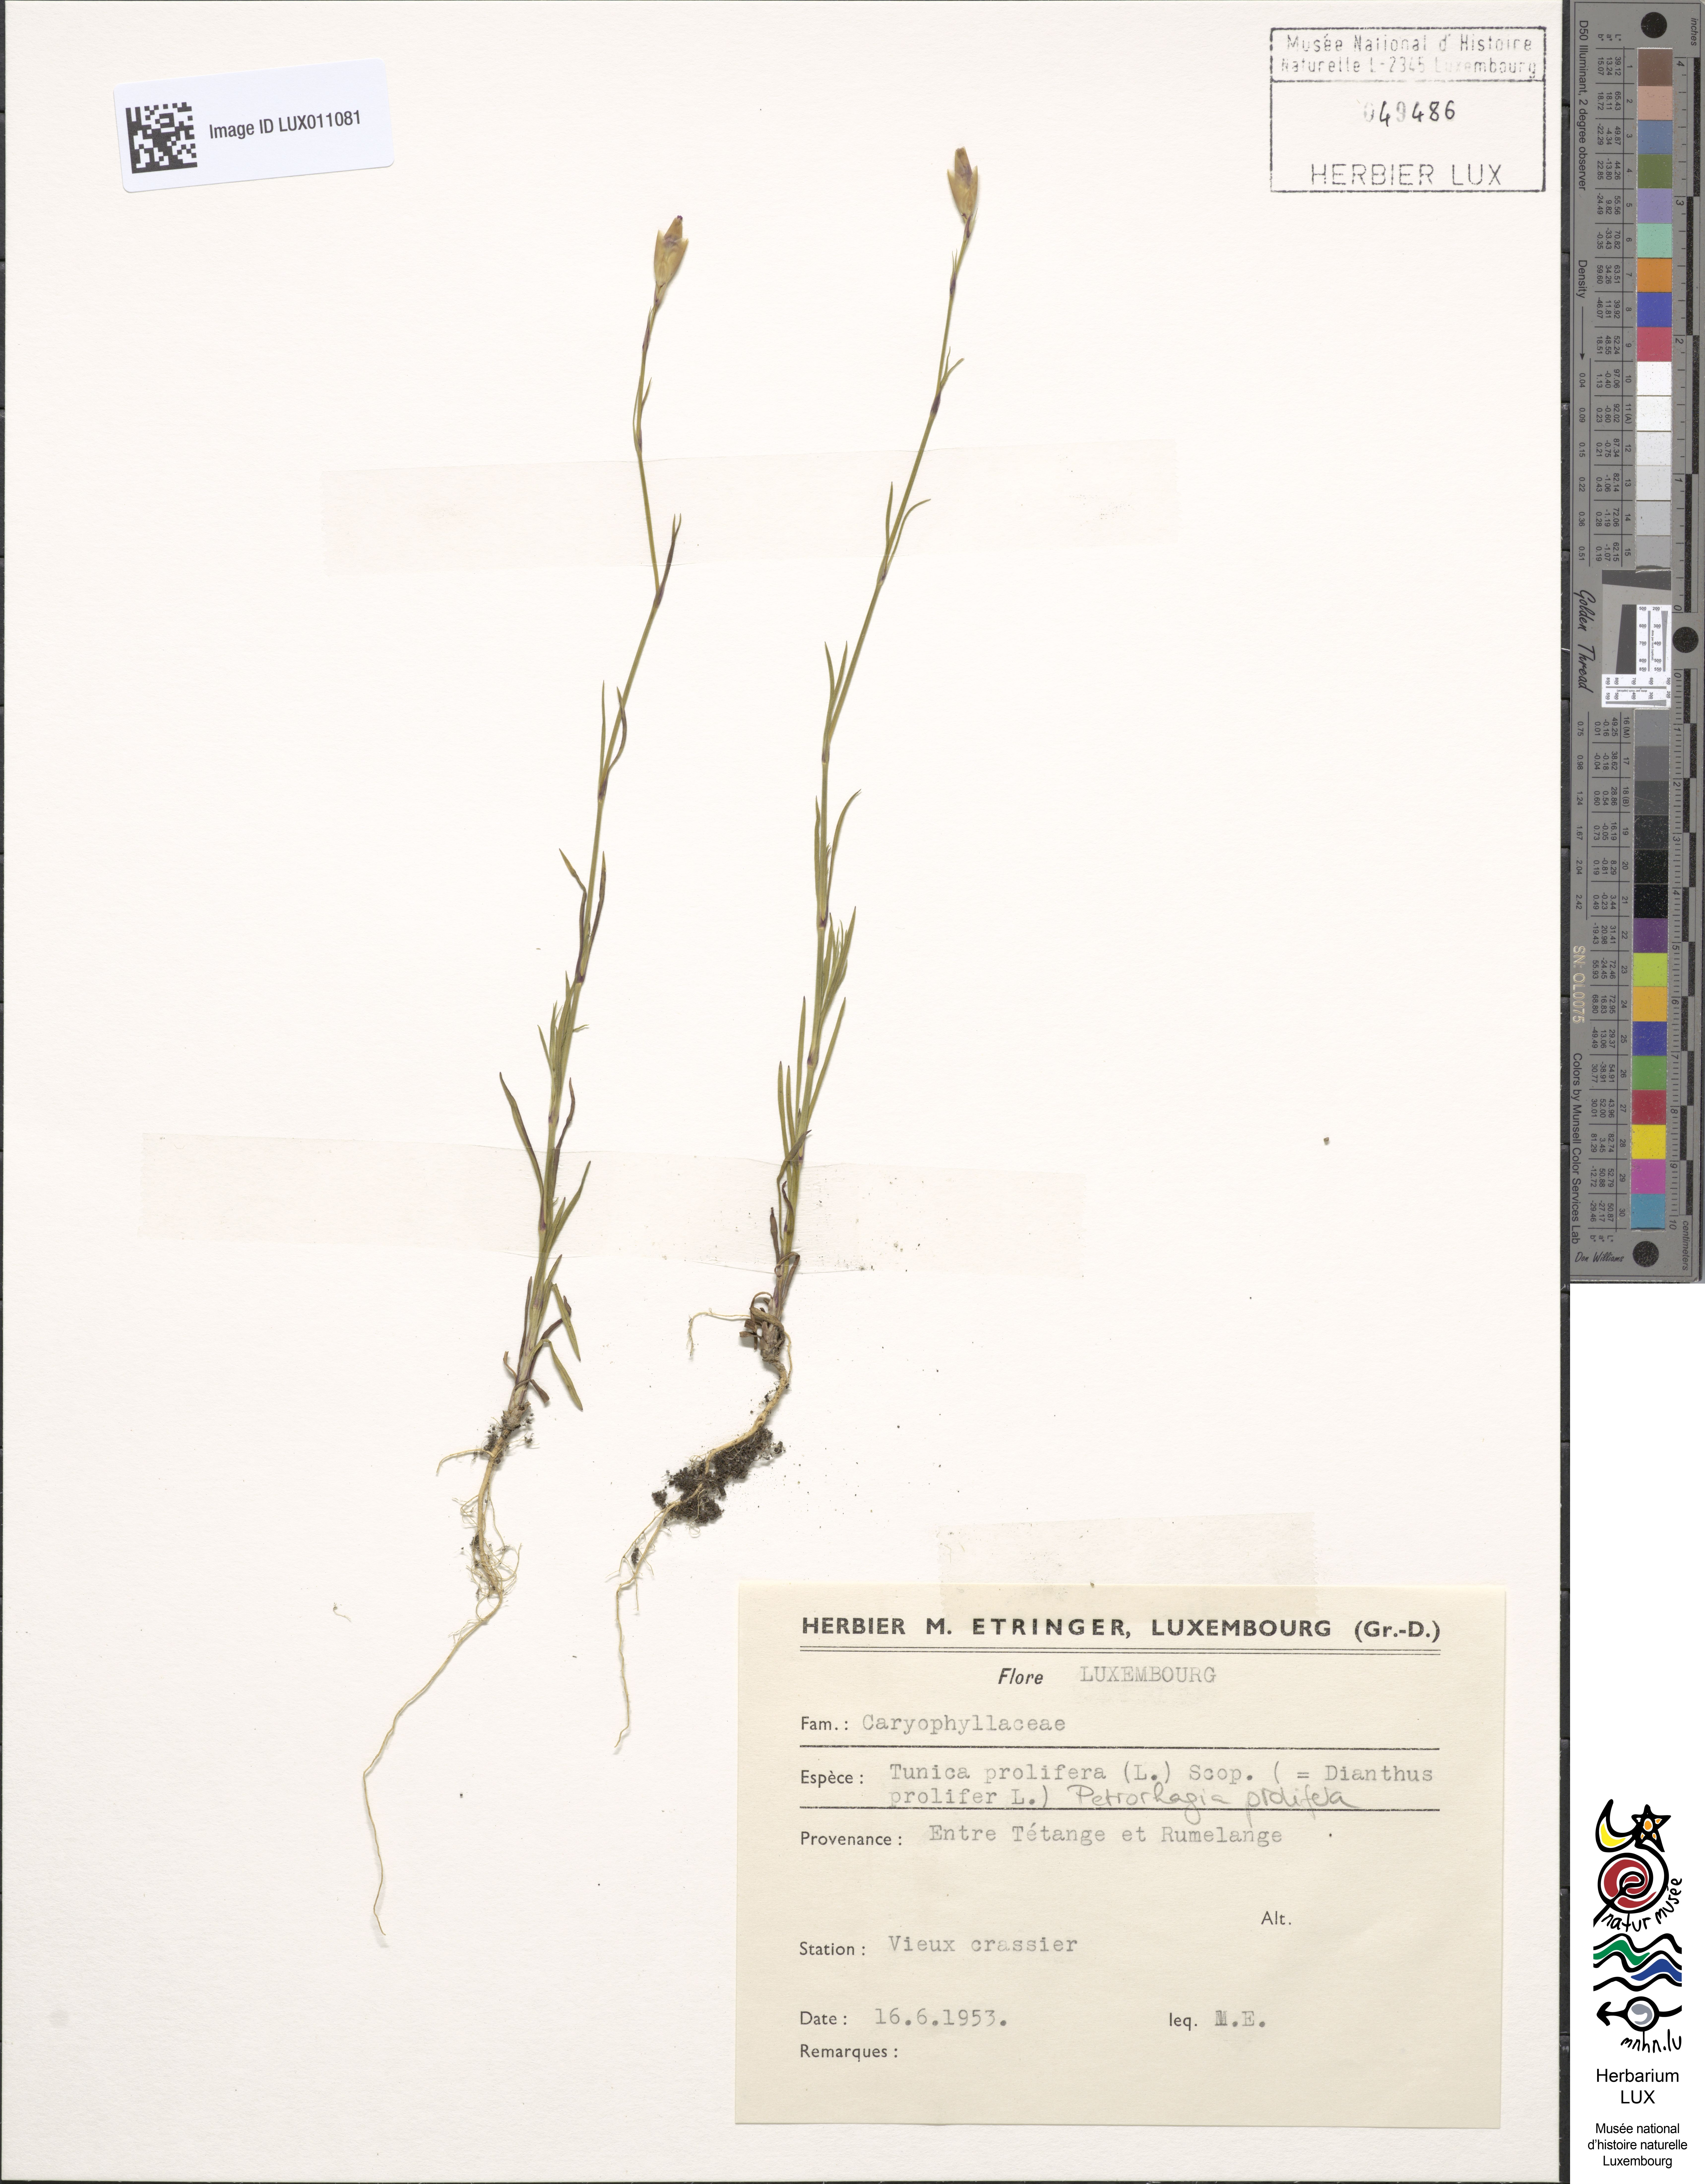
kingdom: Plantae
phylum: Tracheophyta
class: Magnoliopsida
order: Caryophyllales
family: Caryophyllaceae
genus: Petrorhagia
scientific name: Petrorhagia prolifera
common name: Proliferous pink
